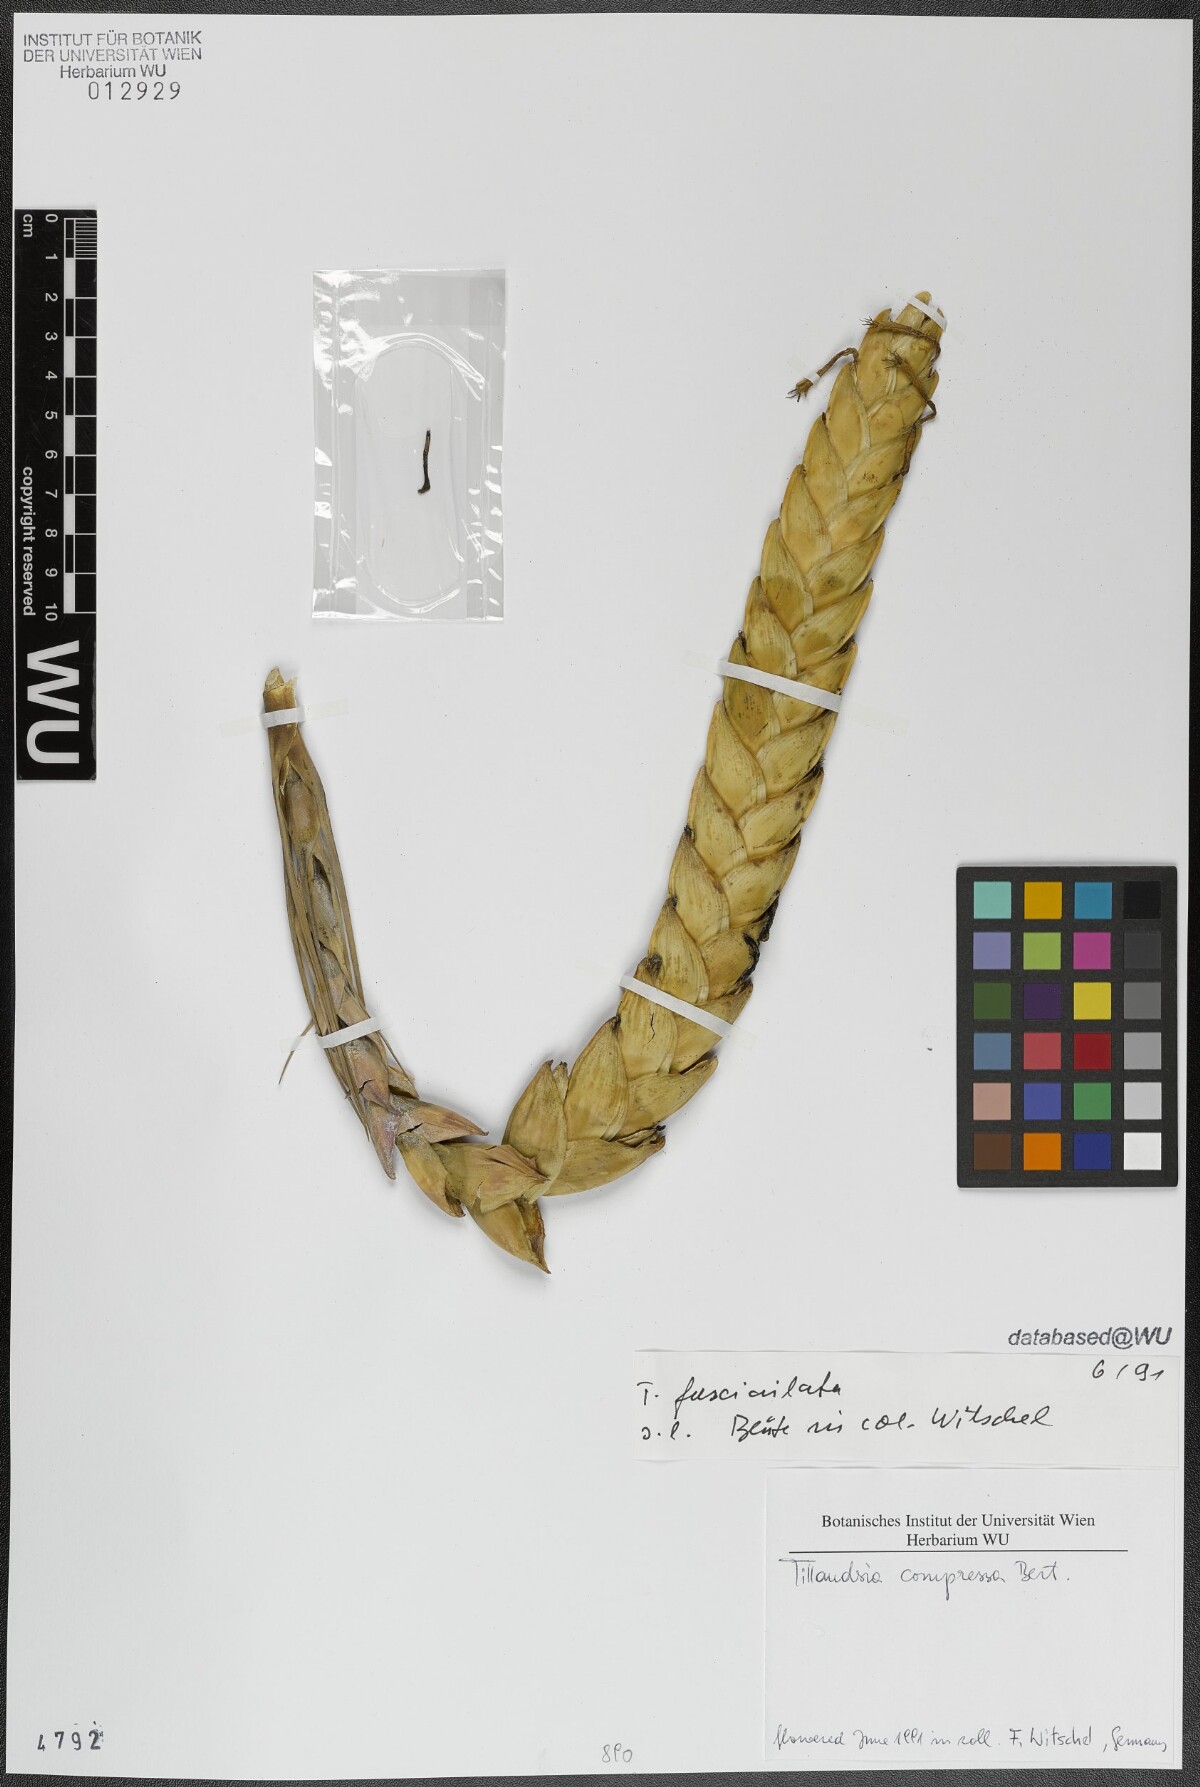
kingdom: Plantae
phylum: Tracheophyta
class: Liliopsida
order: Poales
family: Bromeliaceae
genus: Tillandsia
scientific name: Tillandsia compressa
